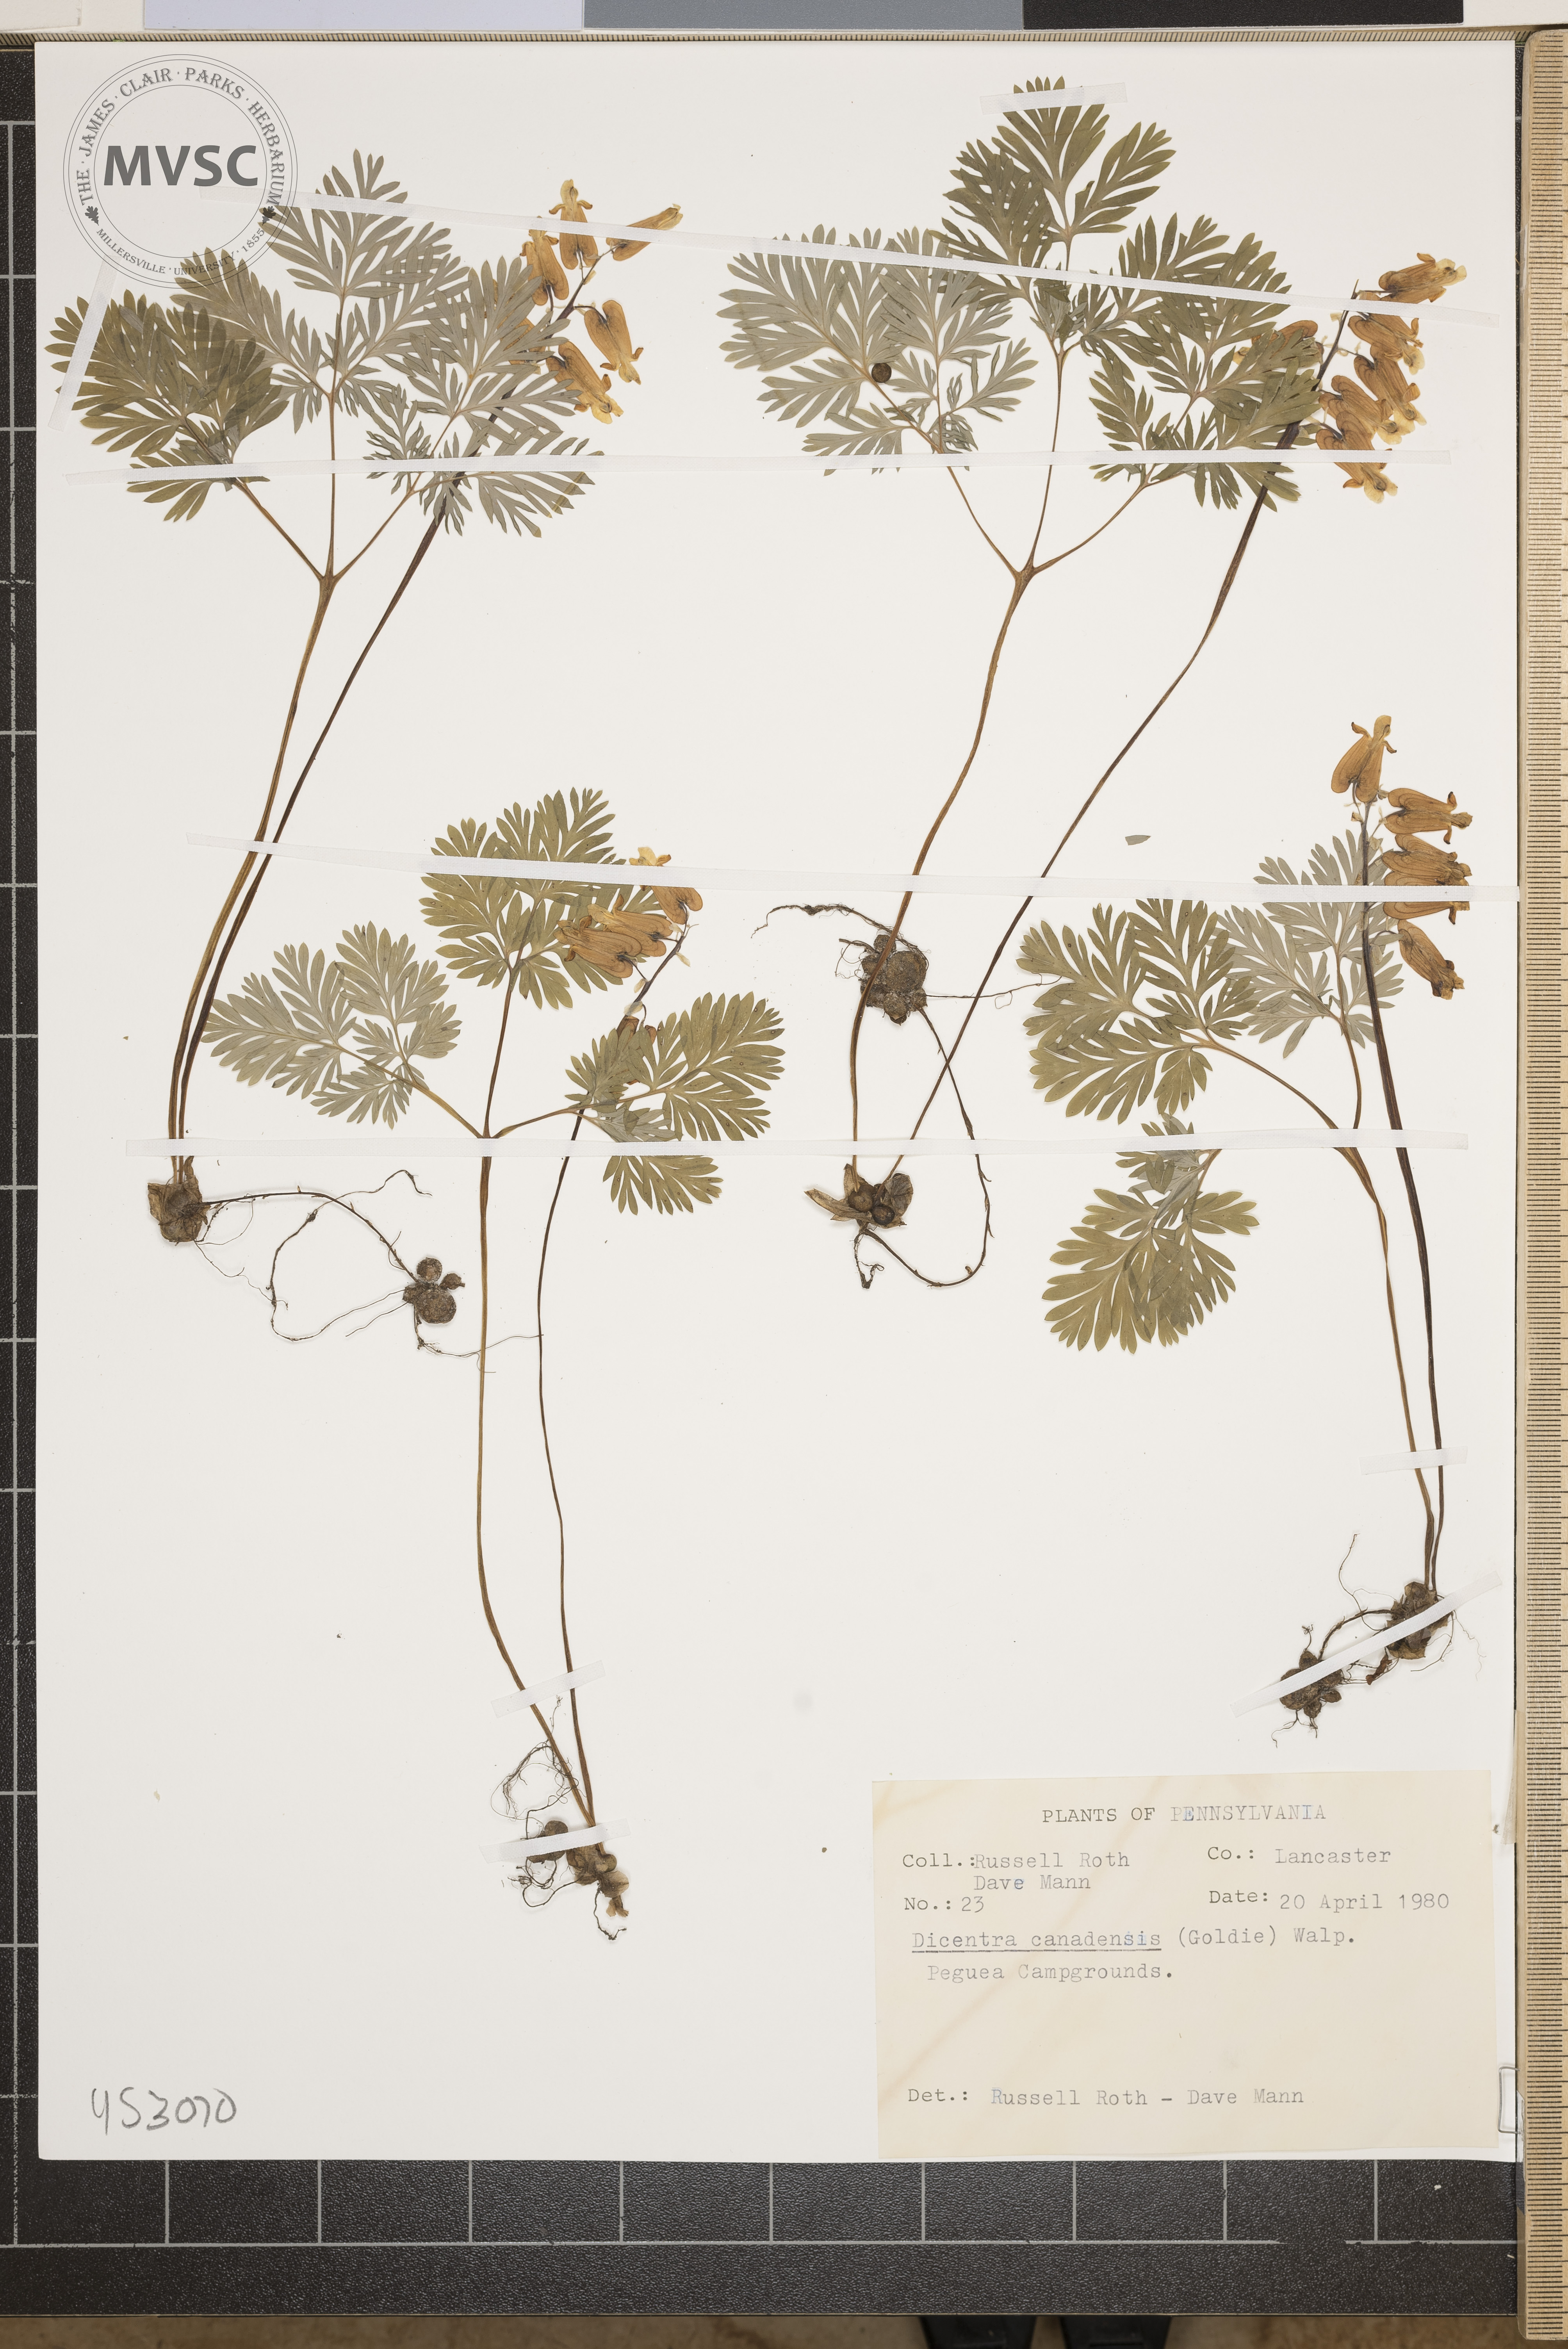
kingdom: Plantae
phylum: Tracheophyta
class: Magnoliopsida
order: Ranunculales
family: Papaveraceae
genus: Dicentra
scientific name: Dicentra canadensis
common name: Squirrel-corn
